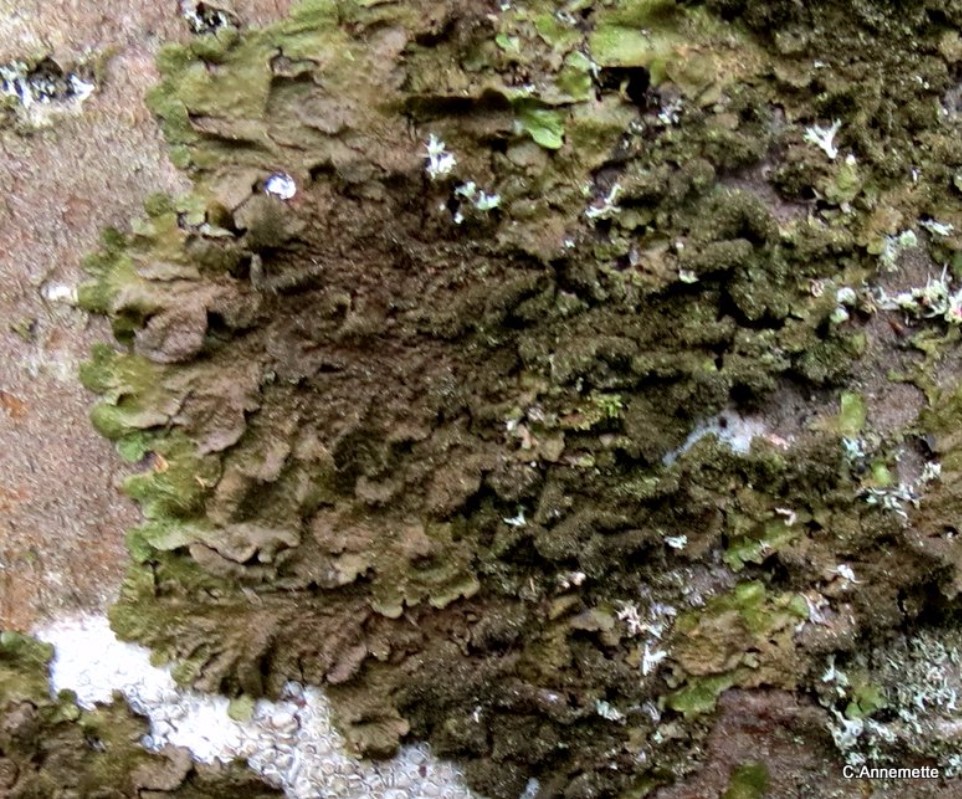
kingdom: Fungi
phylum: Ascomycota
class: Lecanoromycetes
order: Lecanorales
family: Parmeliaceae
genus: Melanelixia
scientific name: Melanelixia glabratula
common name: glinsende skållav
